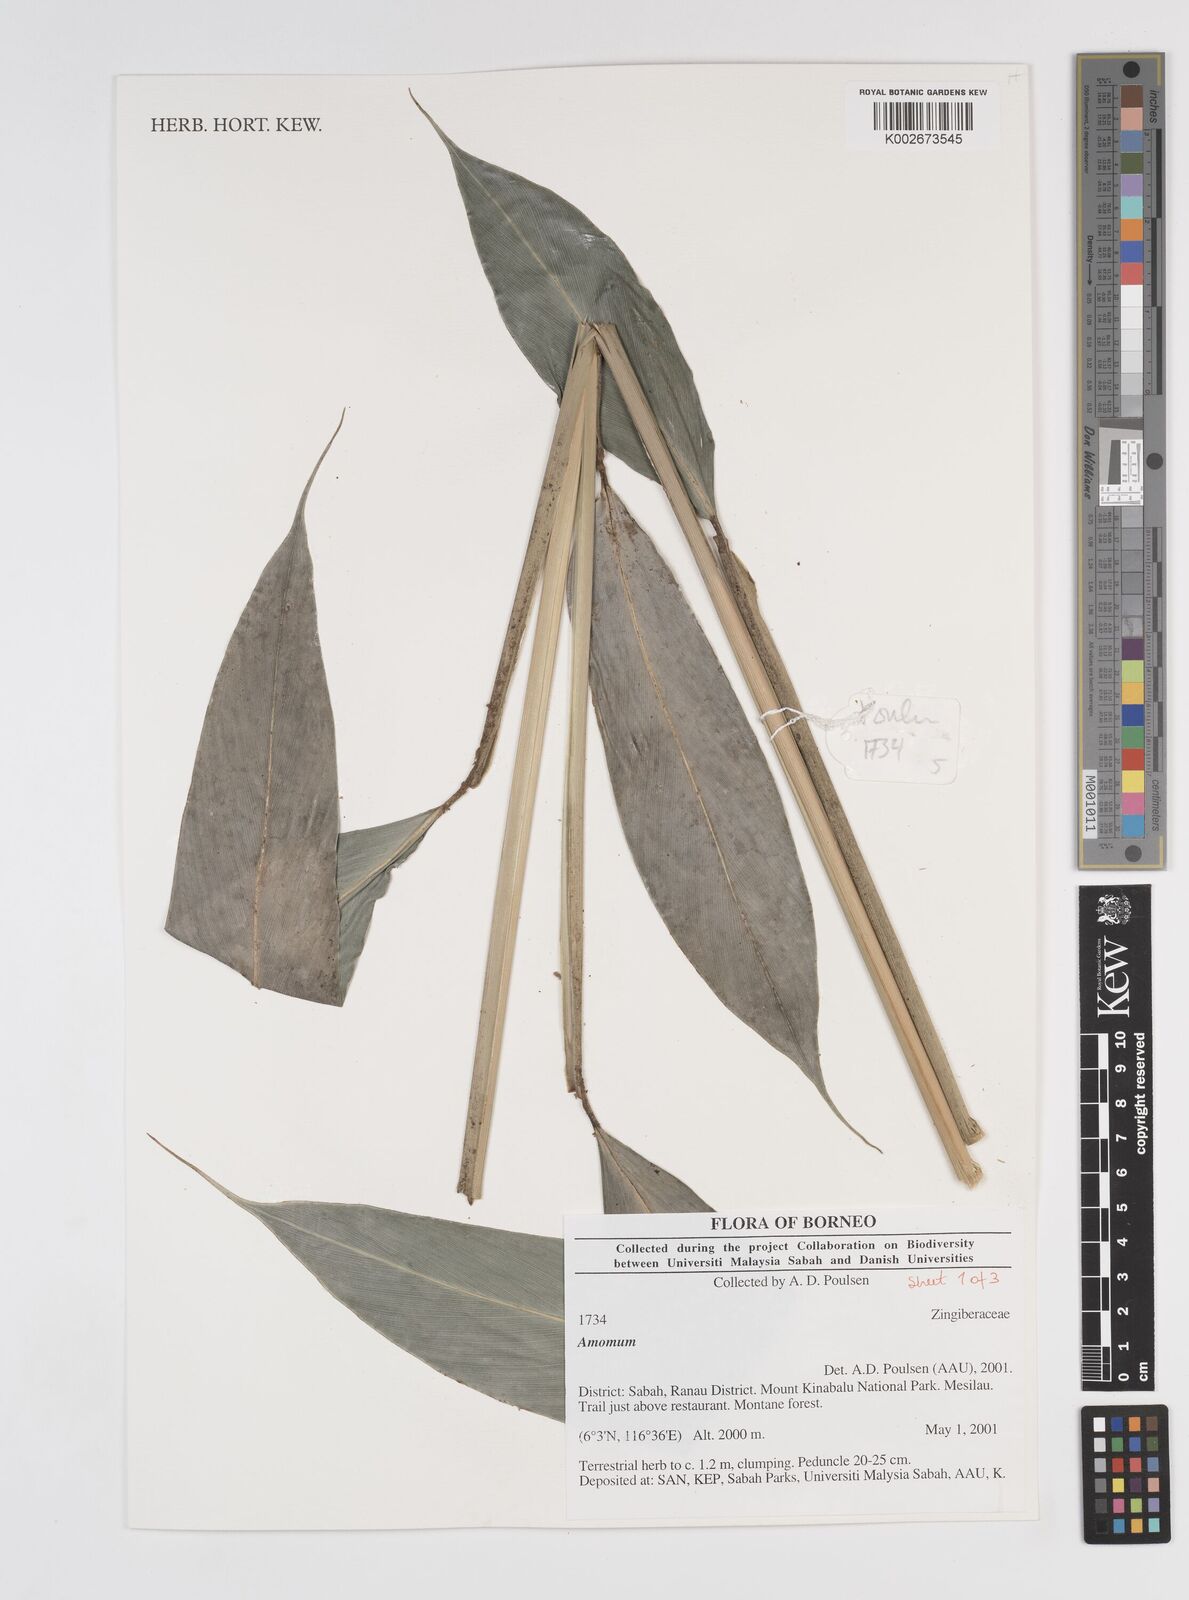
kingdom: Plantae
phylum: Tracheophyta
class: Liliopsida
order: Zingiberales
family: Zingiberaceae
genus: Amomum
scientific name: Amomum
